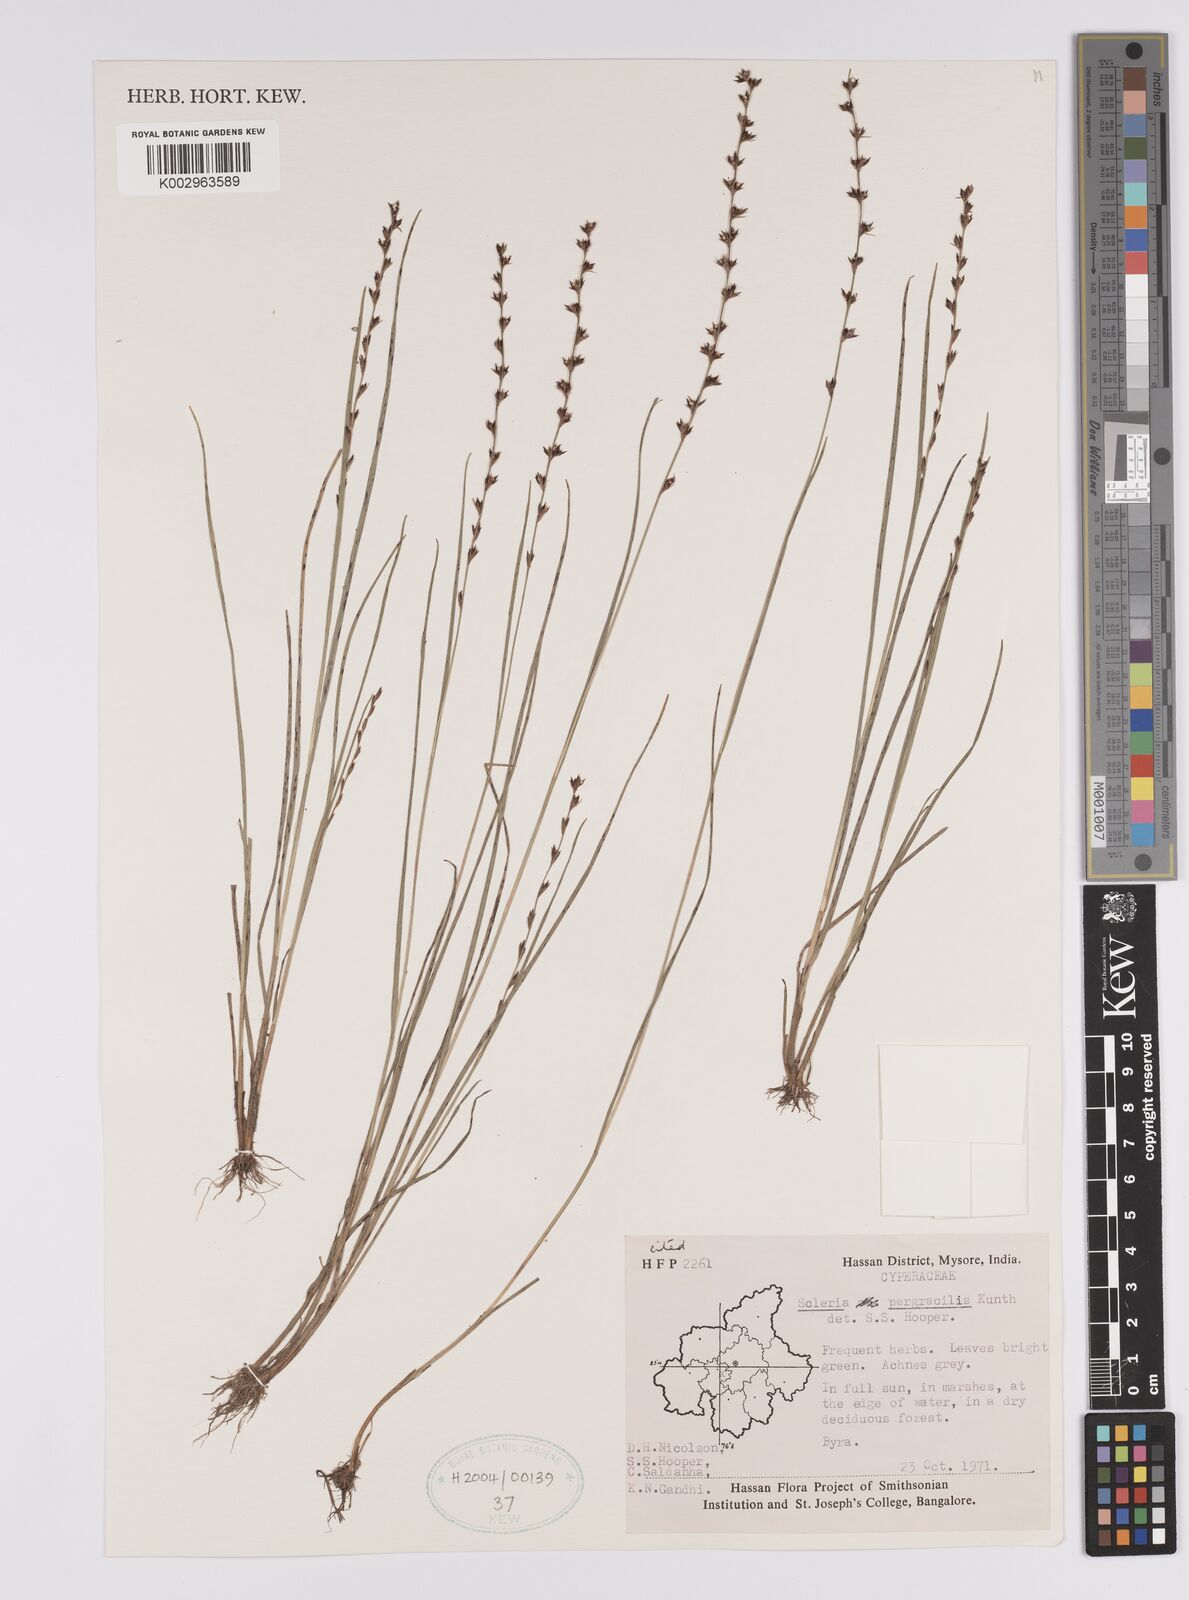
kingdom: Plantae
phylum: Tracheophyta
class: Liliopsida
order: Poales
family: Cyperaceae
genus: Scleria
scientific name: Scleria pergracilis
